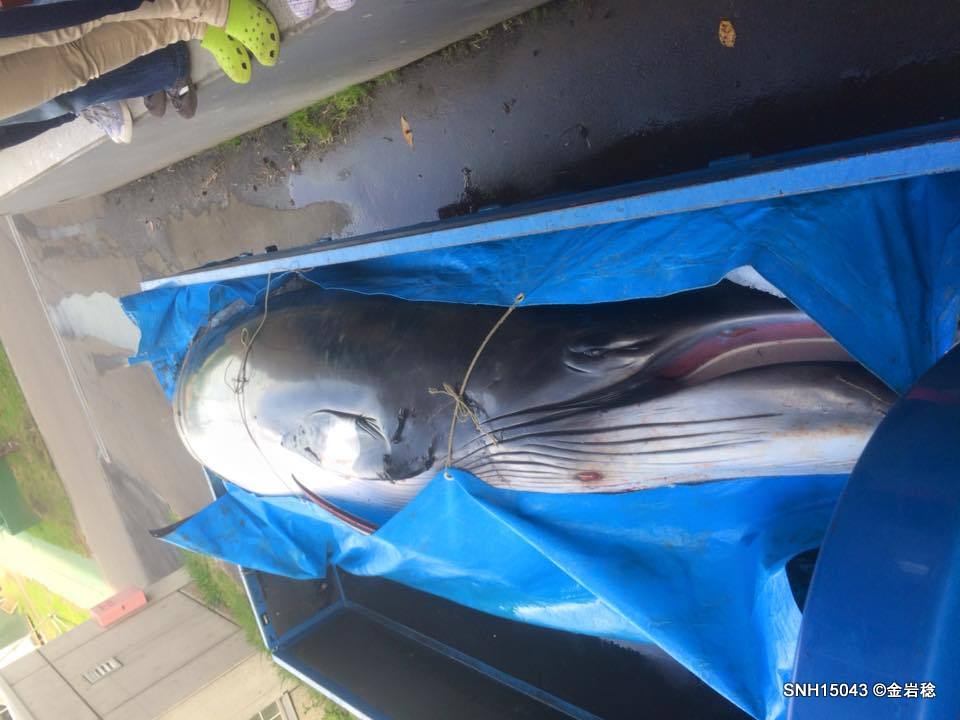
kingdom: Animalia
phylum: Chordata
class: Mammalia
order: Cetacea
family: Balaenopteridae
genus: Balaenoptera
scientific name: Balaenoptera acutorostrata
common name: Minke whale
